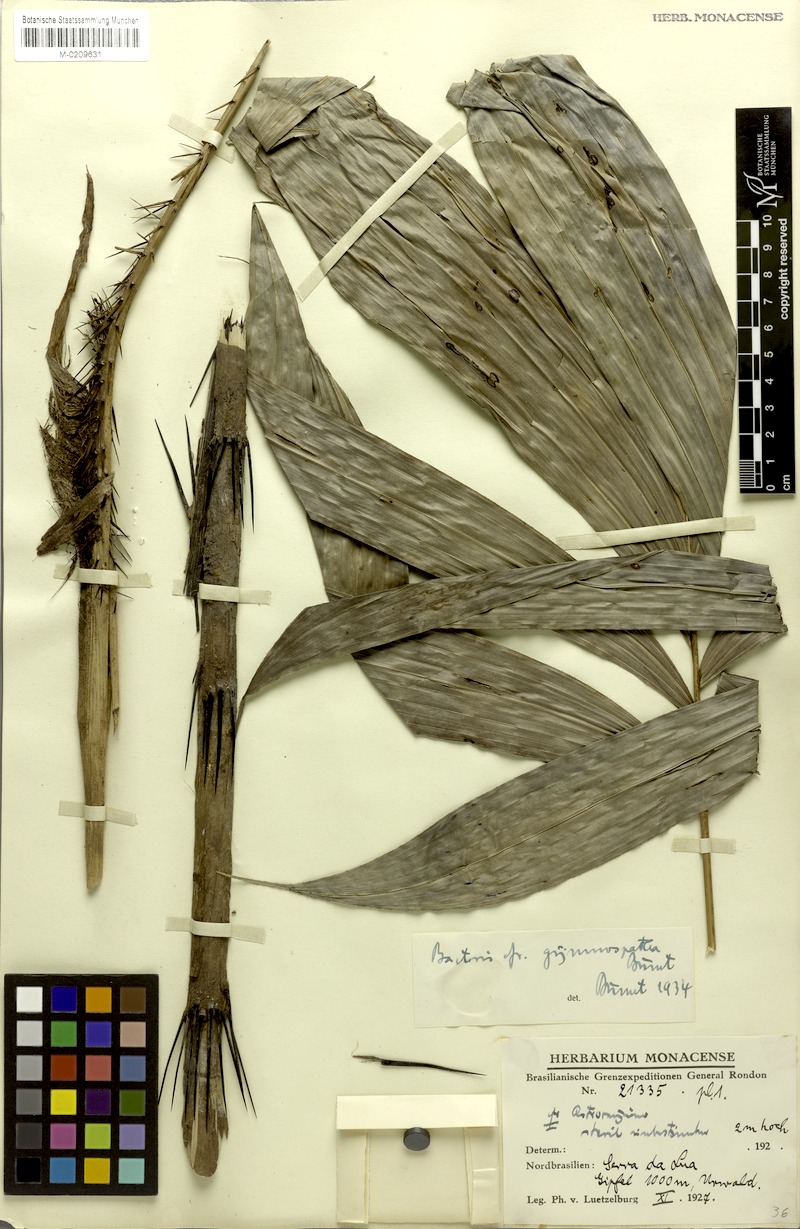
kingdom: Plantae
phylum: Tracheophyta
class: Liliopsida
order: Arecales
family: Arecaceae
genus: Bactris
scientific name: Bactris maraja
